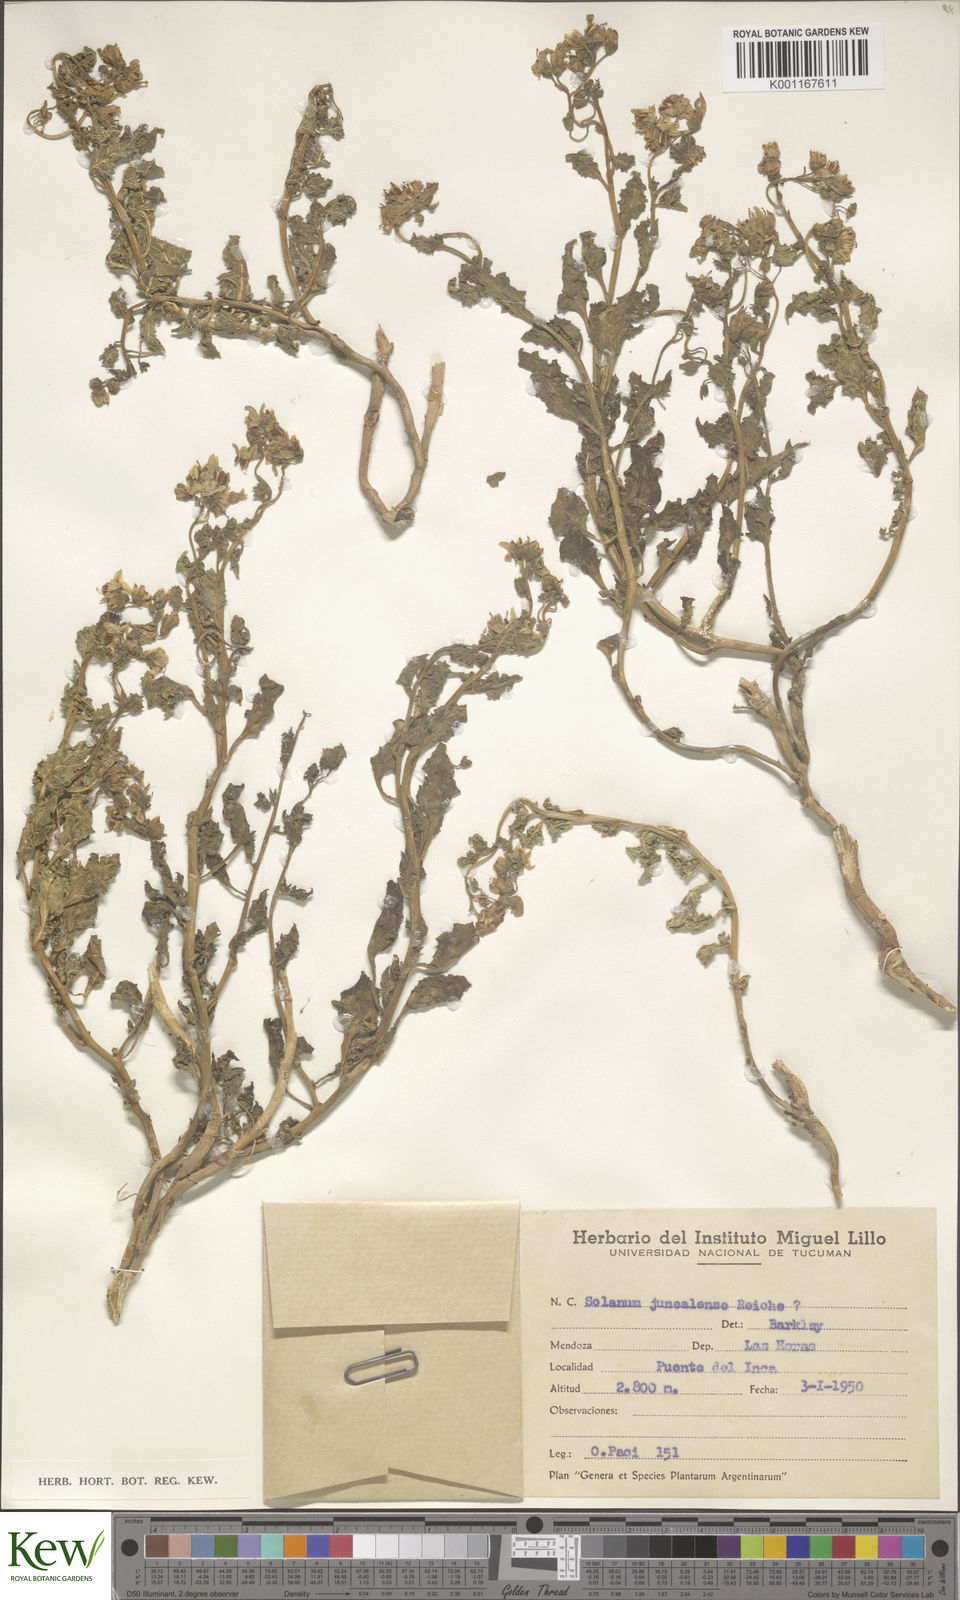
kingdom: Plantae
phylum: Tracheophyta
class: Magnoliopsida
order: Solanales
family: Solanaceae
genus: Solanum
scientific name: Solanum echegarayi
